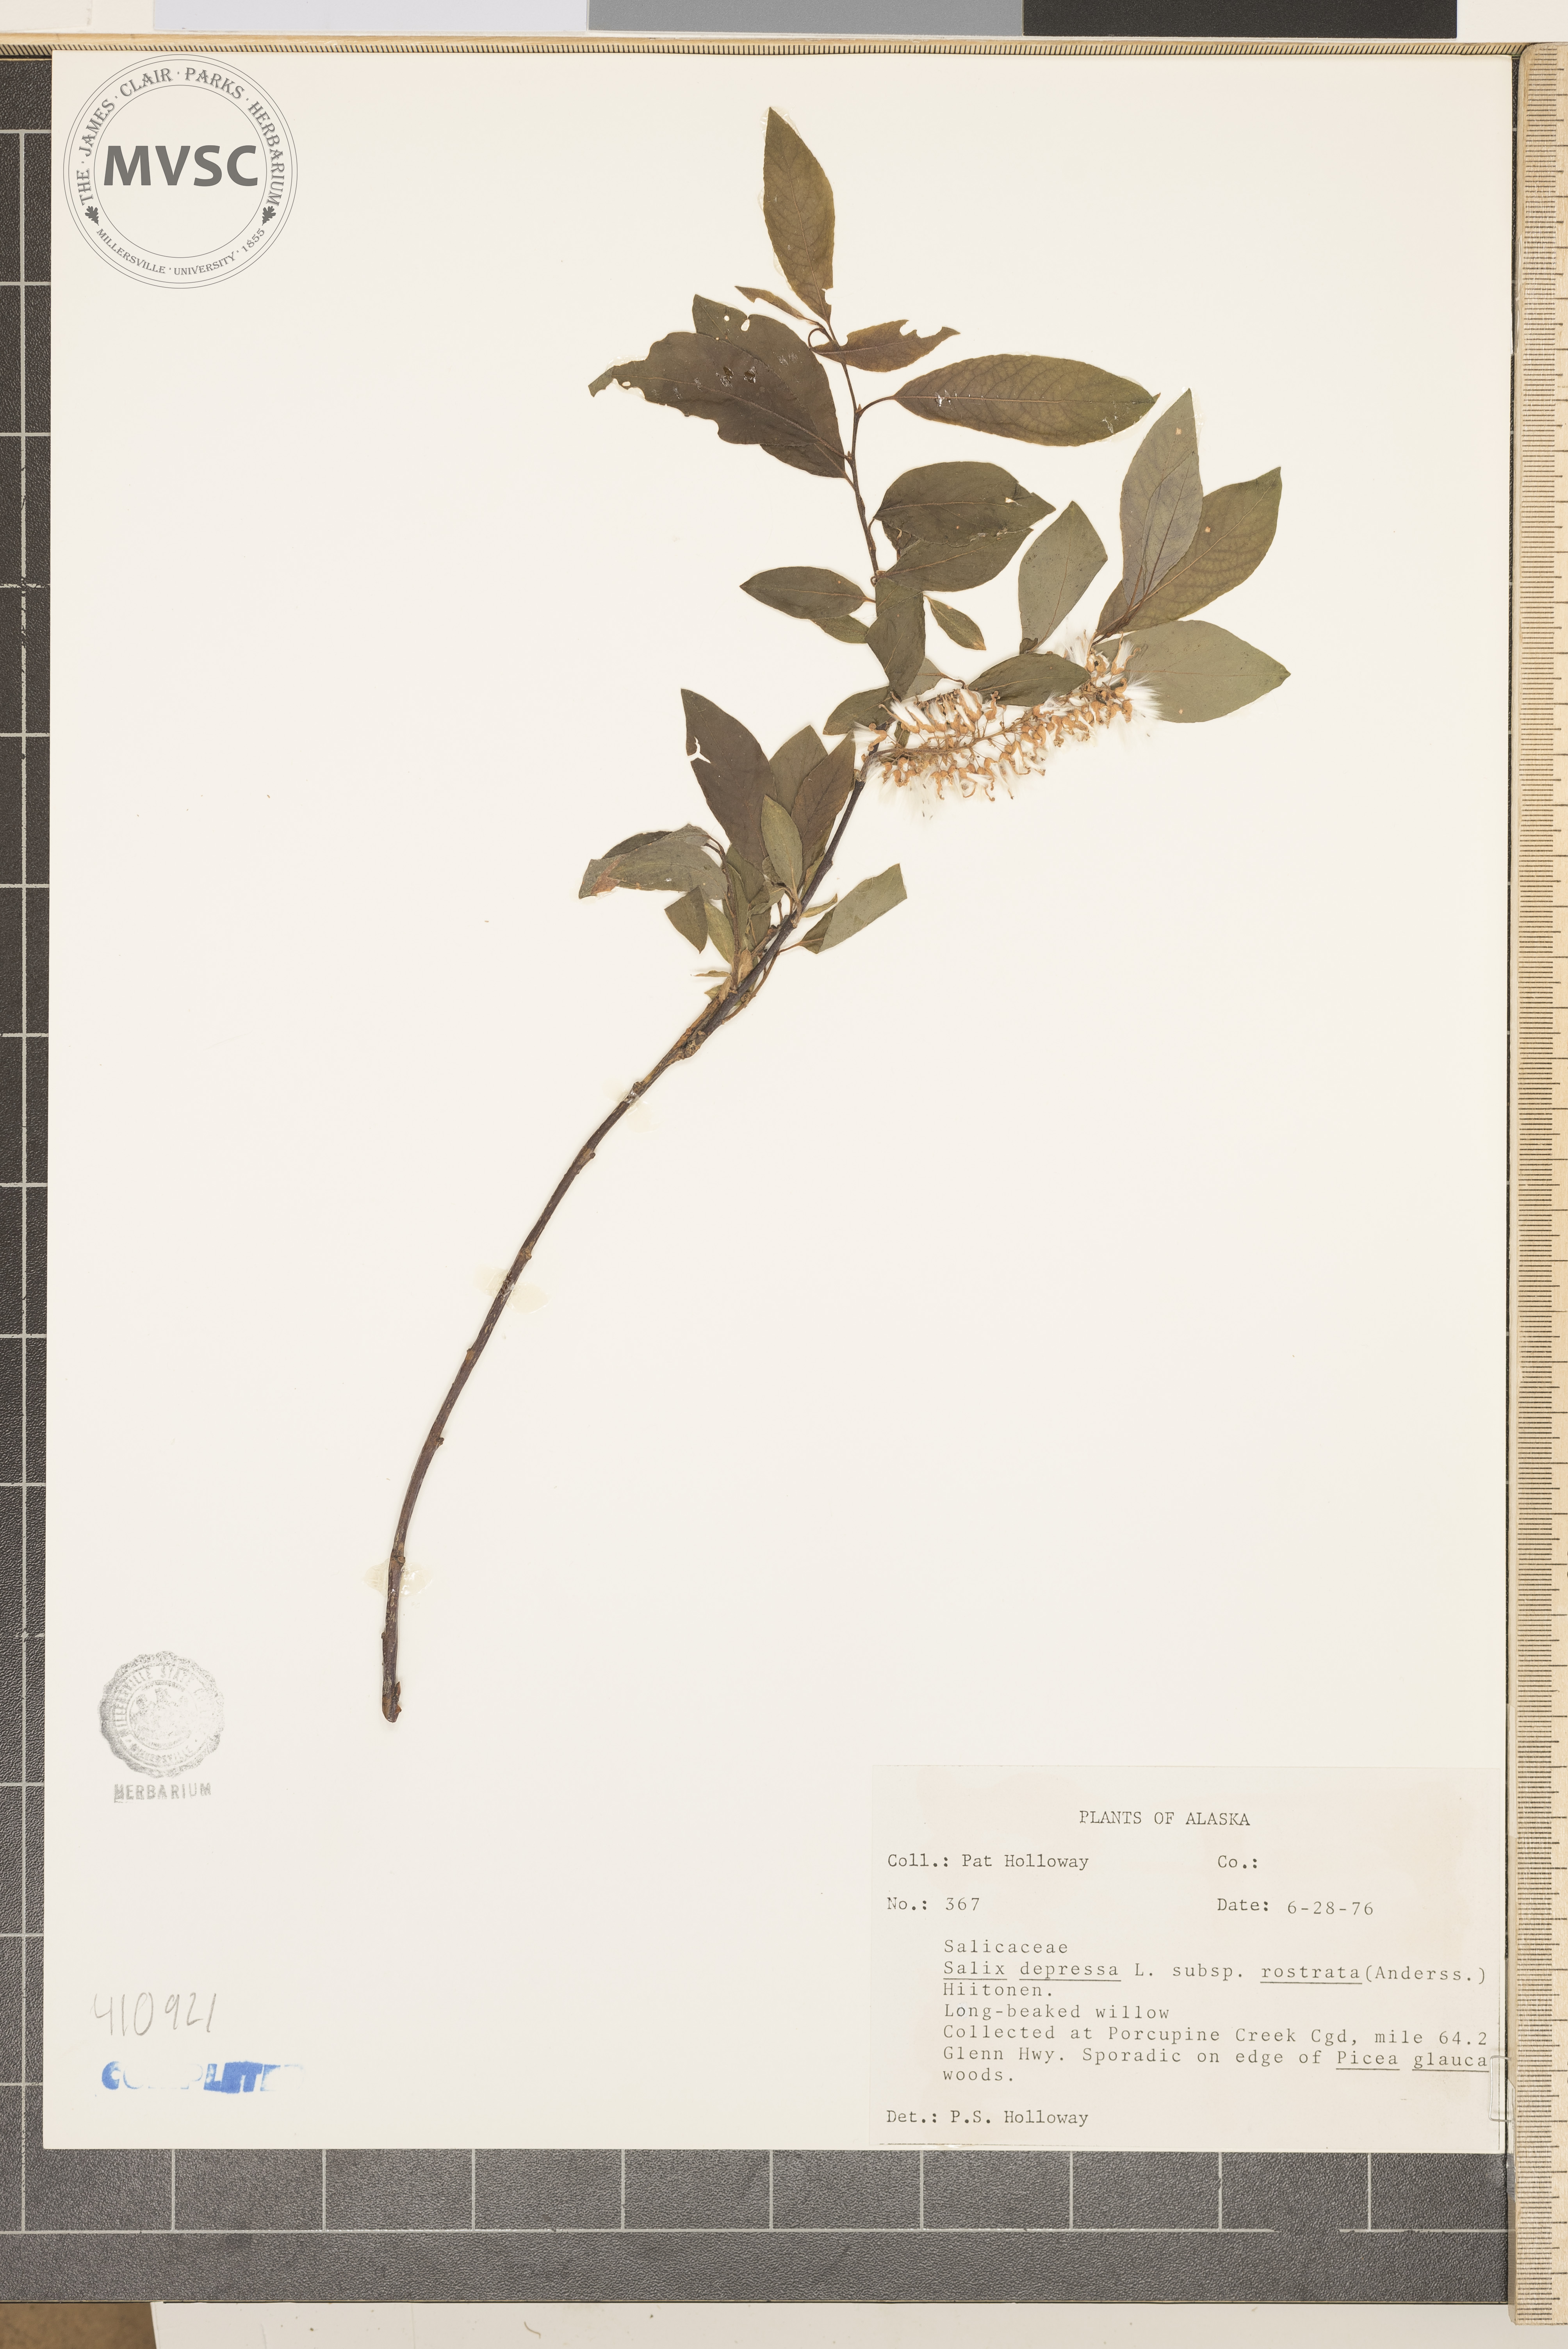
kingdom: Plantae
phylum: Tracheophyta
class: Magnoliopsida
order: Malpighiales
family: Salicaceae
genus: Salix
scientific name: Salix
